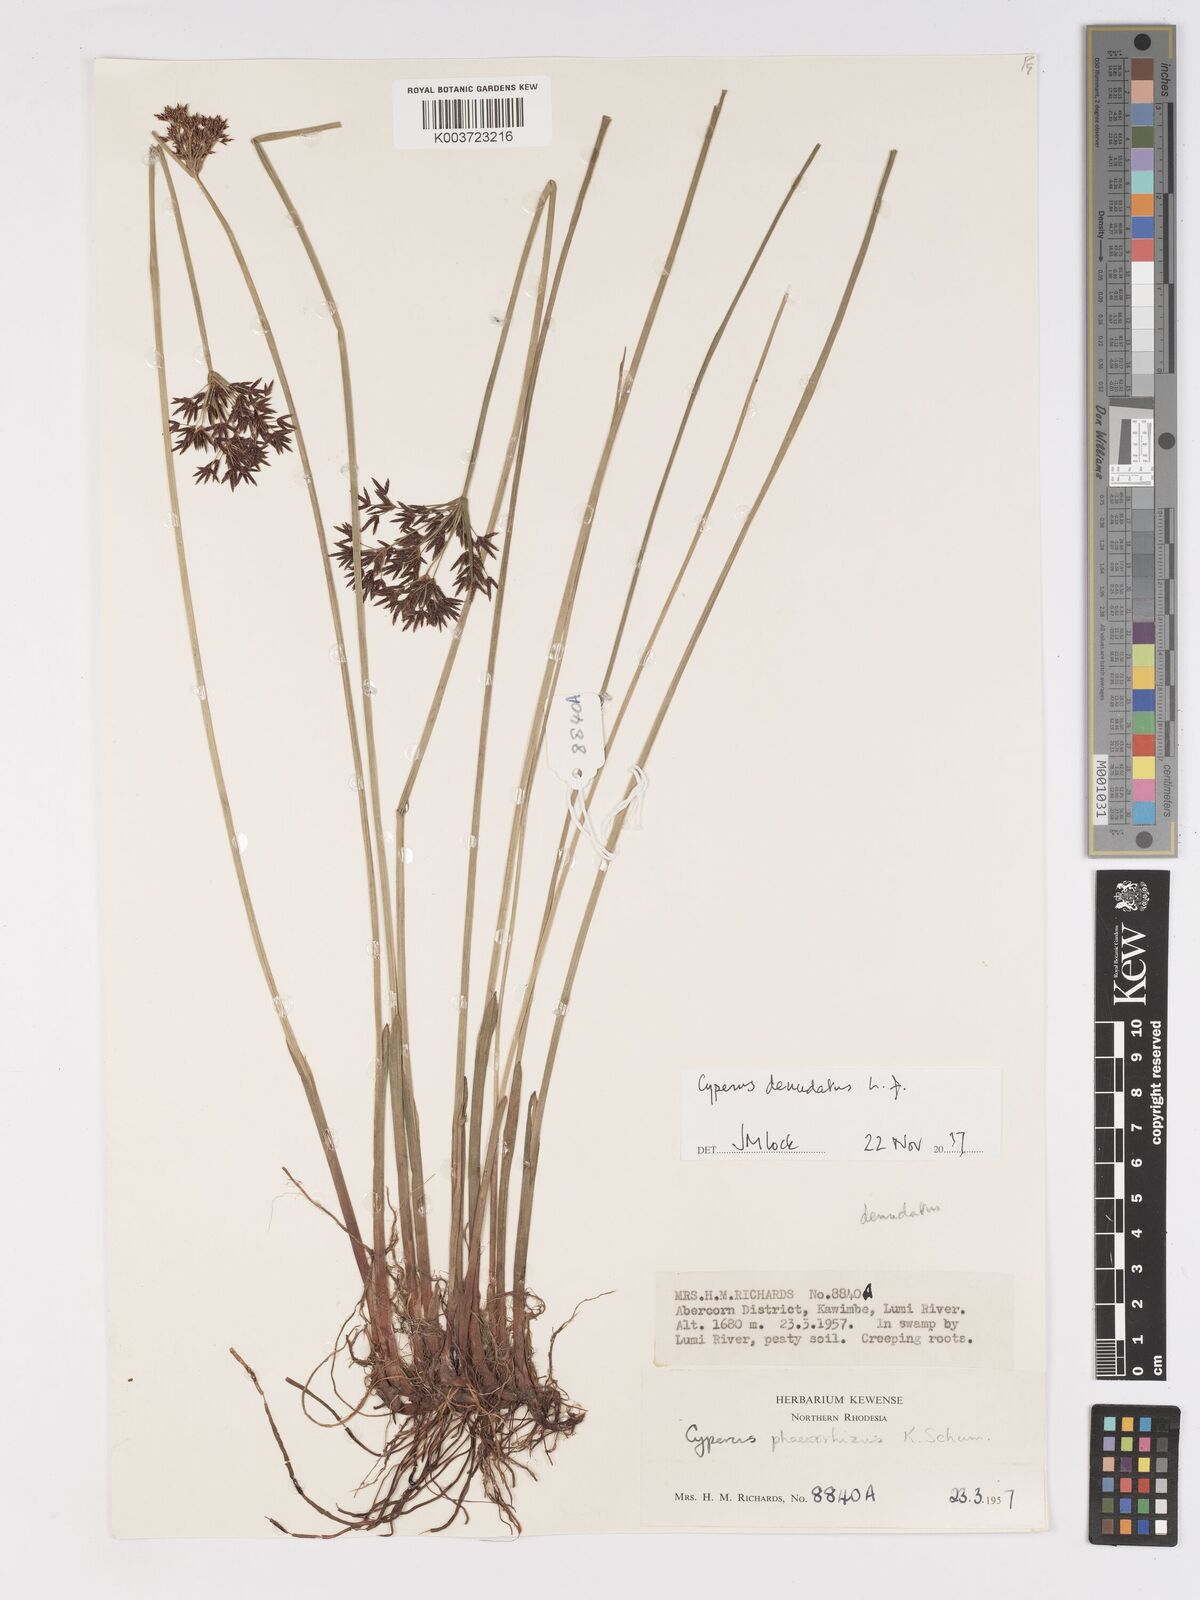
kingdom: Plantae
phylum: Tracheophyta
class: Liliopsida
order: Poales
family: Cyperaceae
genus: Cyperus
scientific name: Cyperus haspan
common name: Haspan flatsedge
